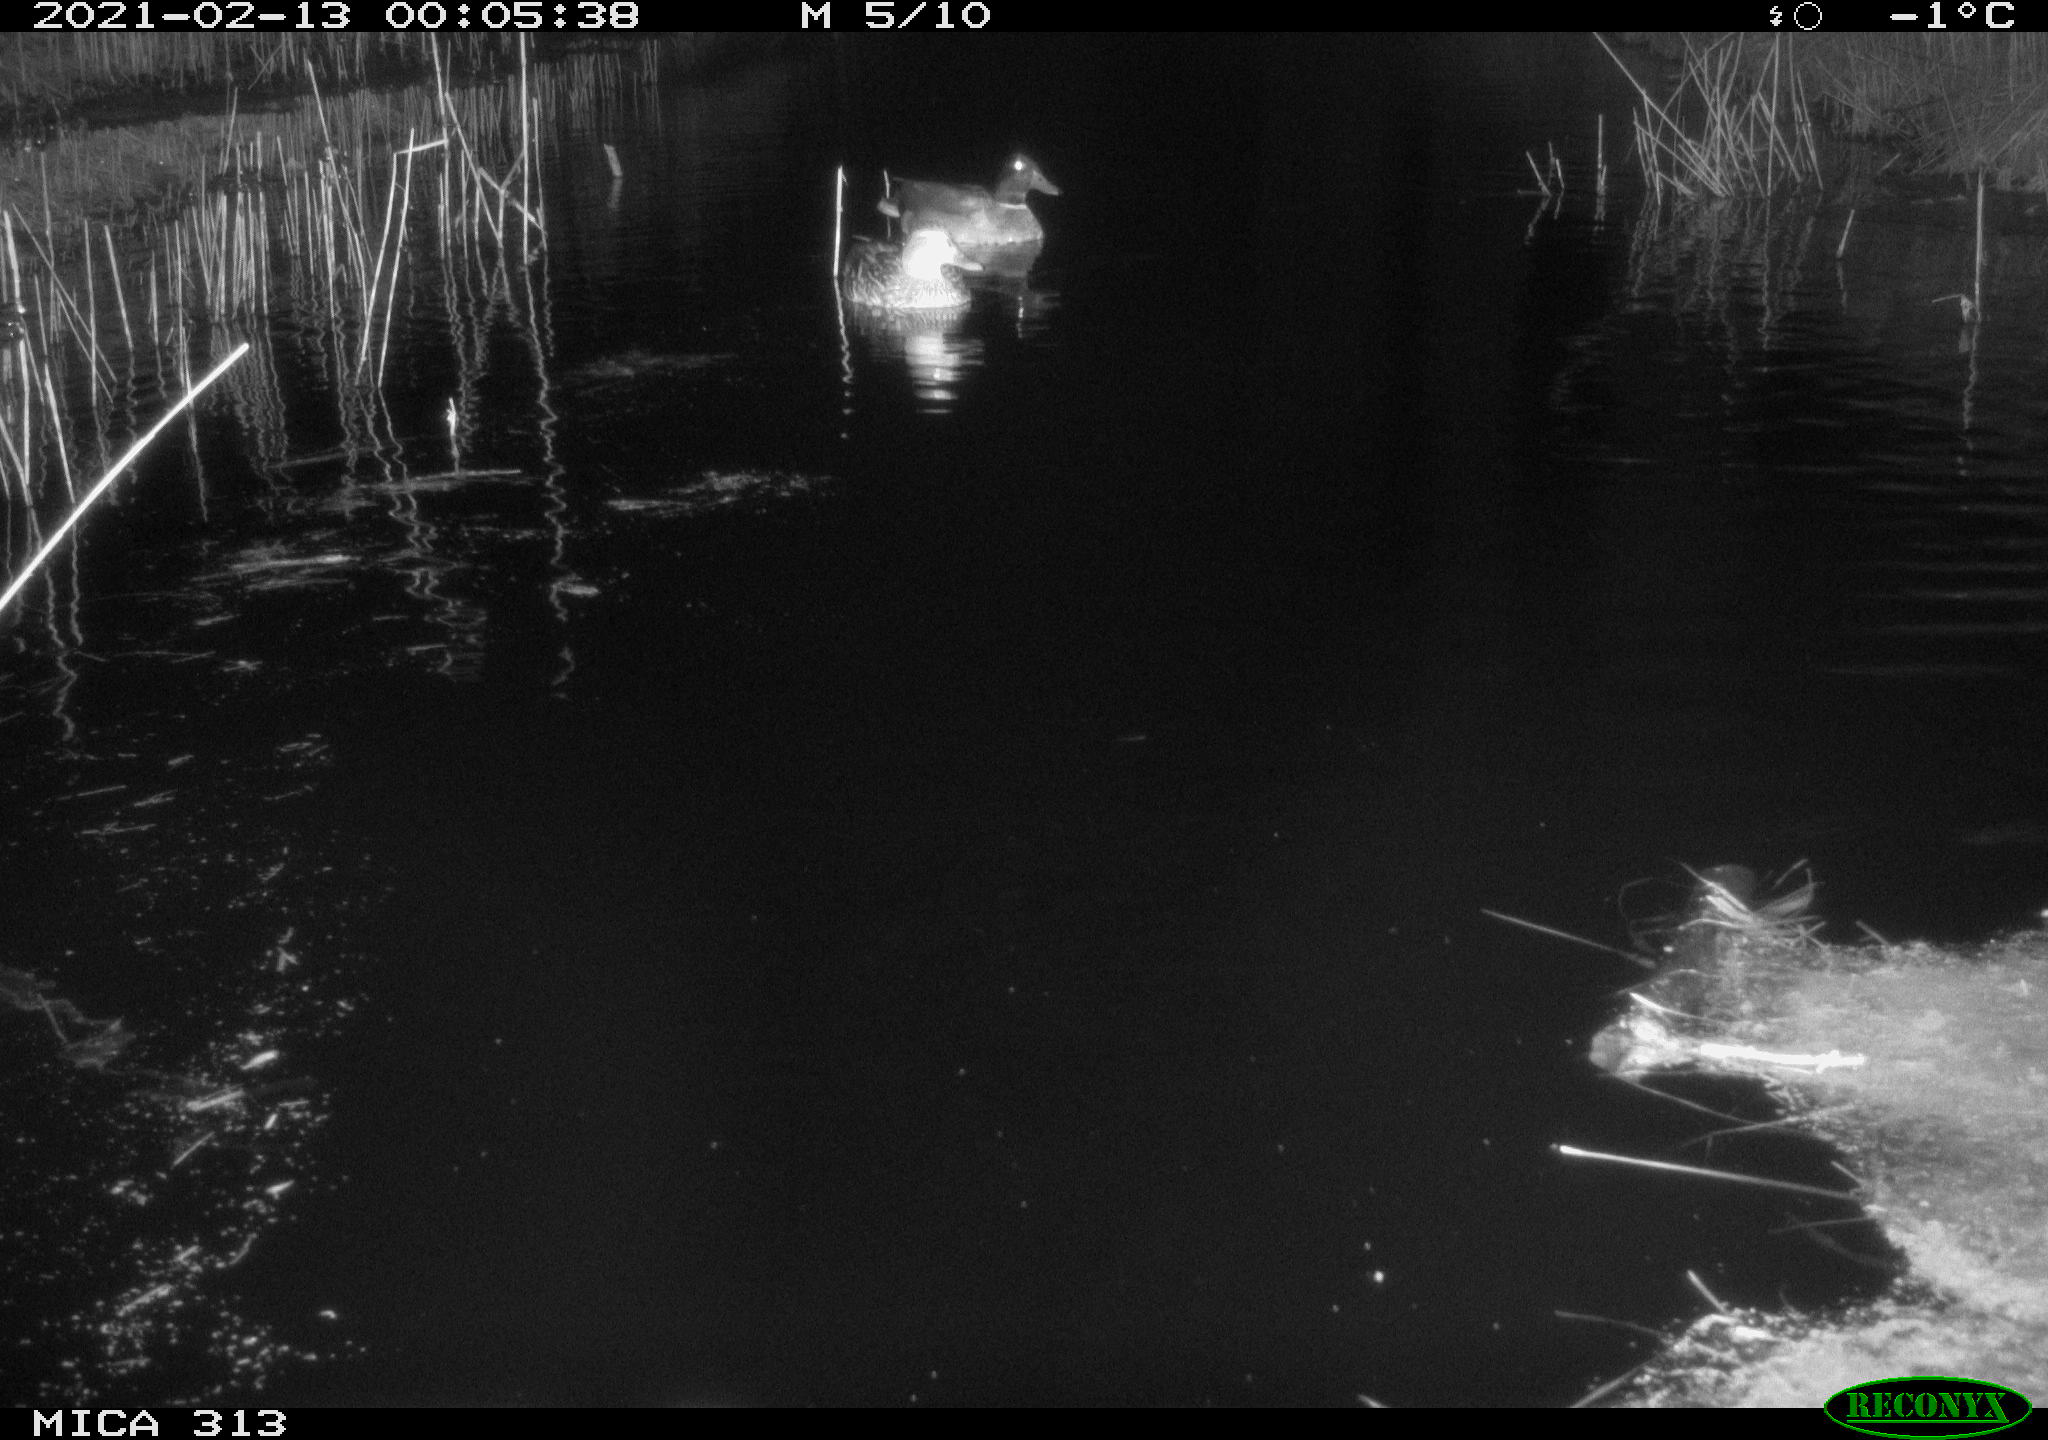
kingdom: Animalia
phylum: Chordata
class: Aves
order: Gruiformes
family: Rallidae
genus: Fulica
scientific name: Fulica atra
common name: Eurasian coot
